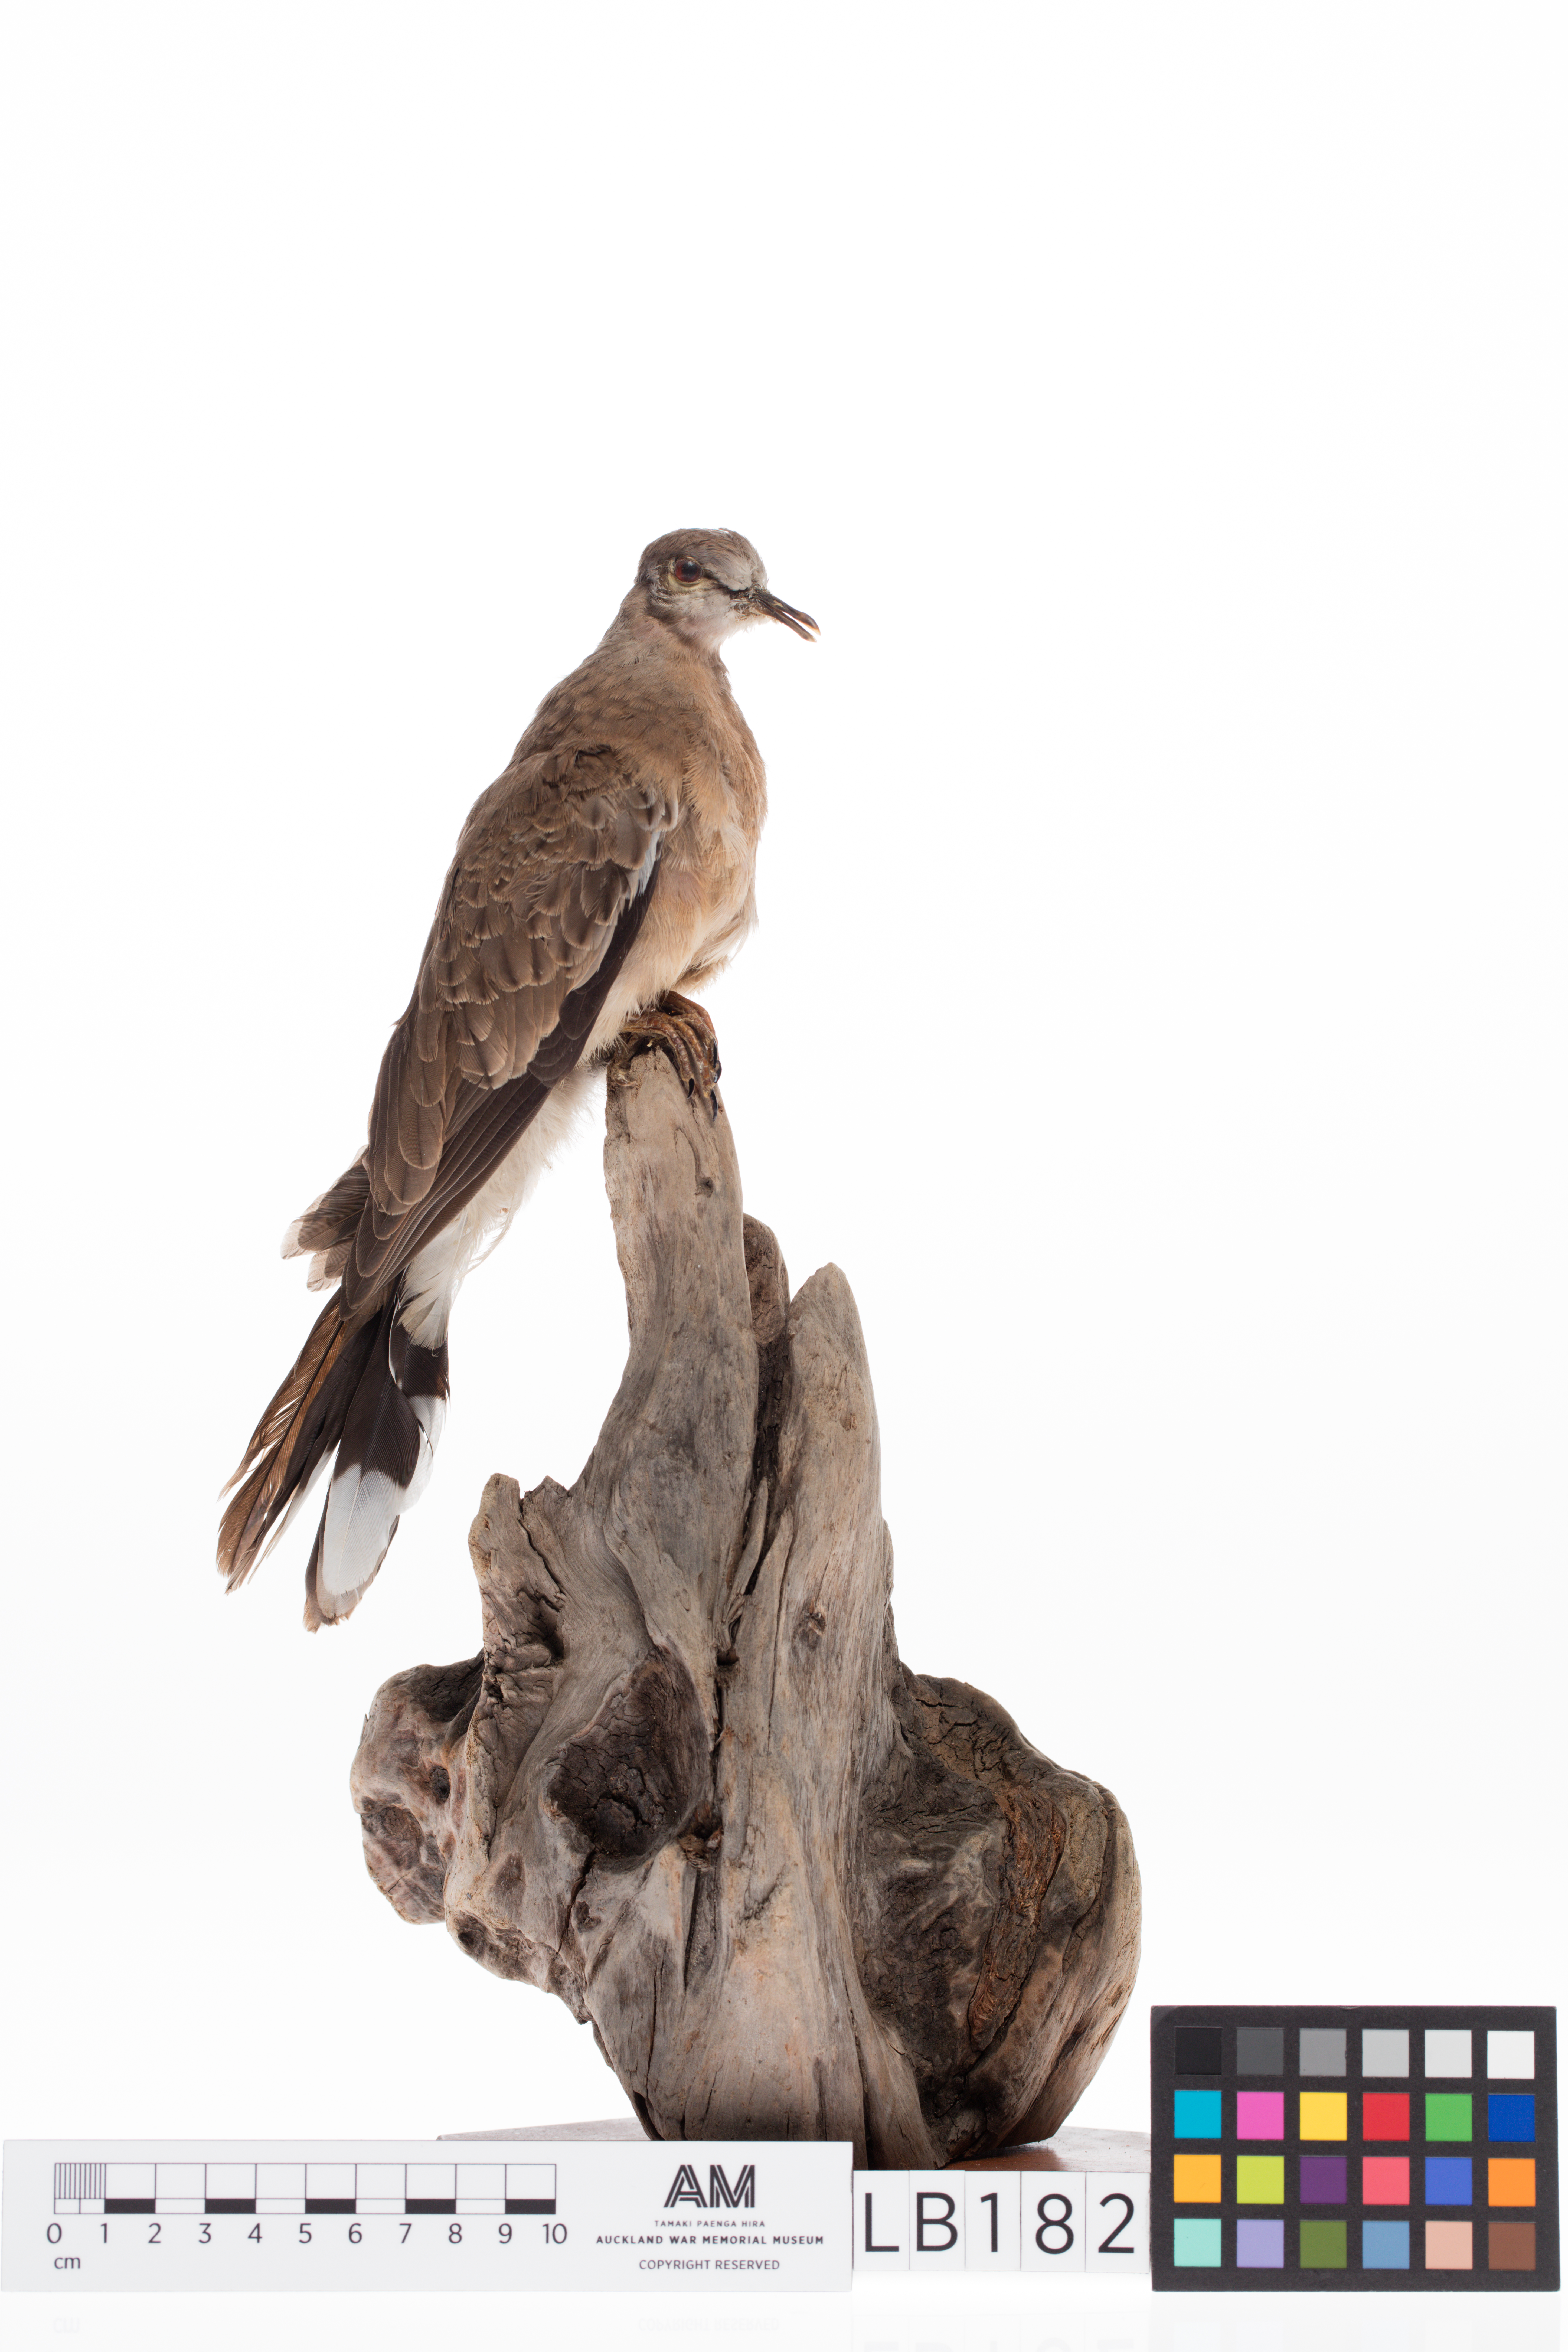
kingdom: Animalia
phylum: Chordata
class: Aves
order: Columbiformes
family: Columbidae
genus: Spilopelia
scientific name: Spilopelia chinensis
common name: Spotted dove
